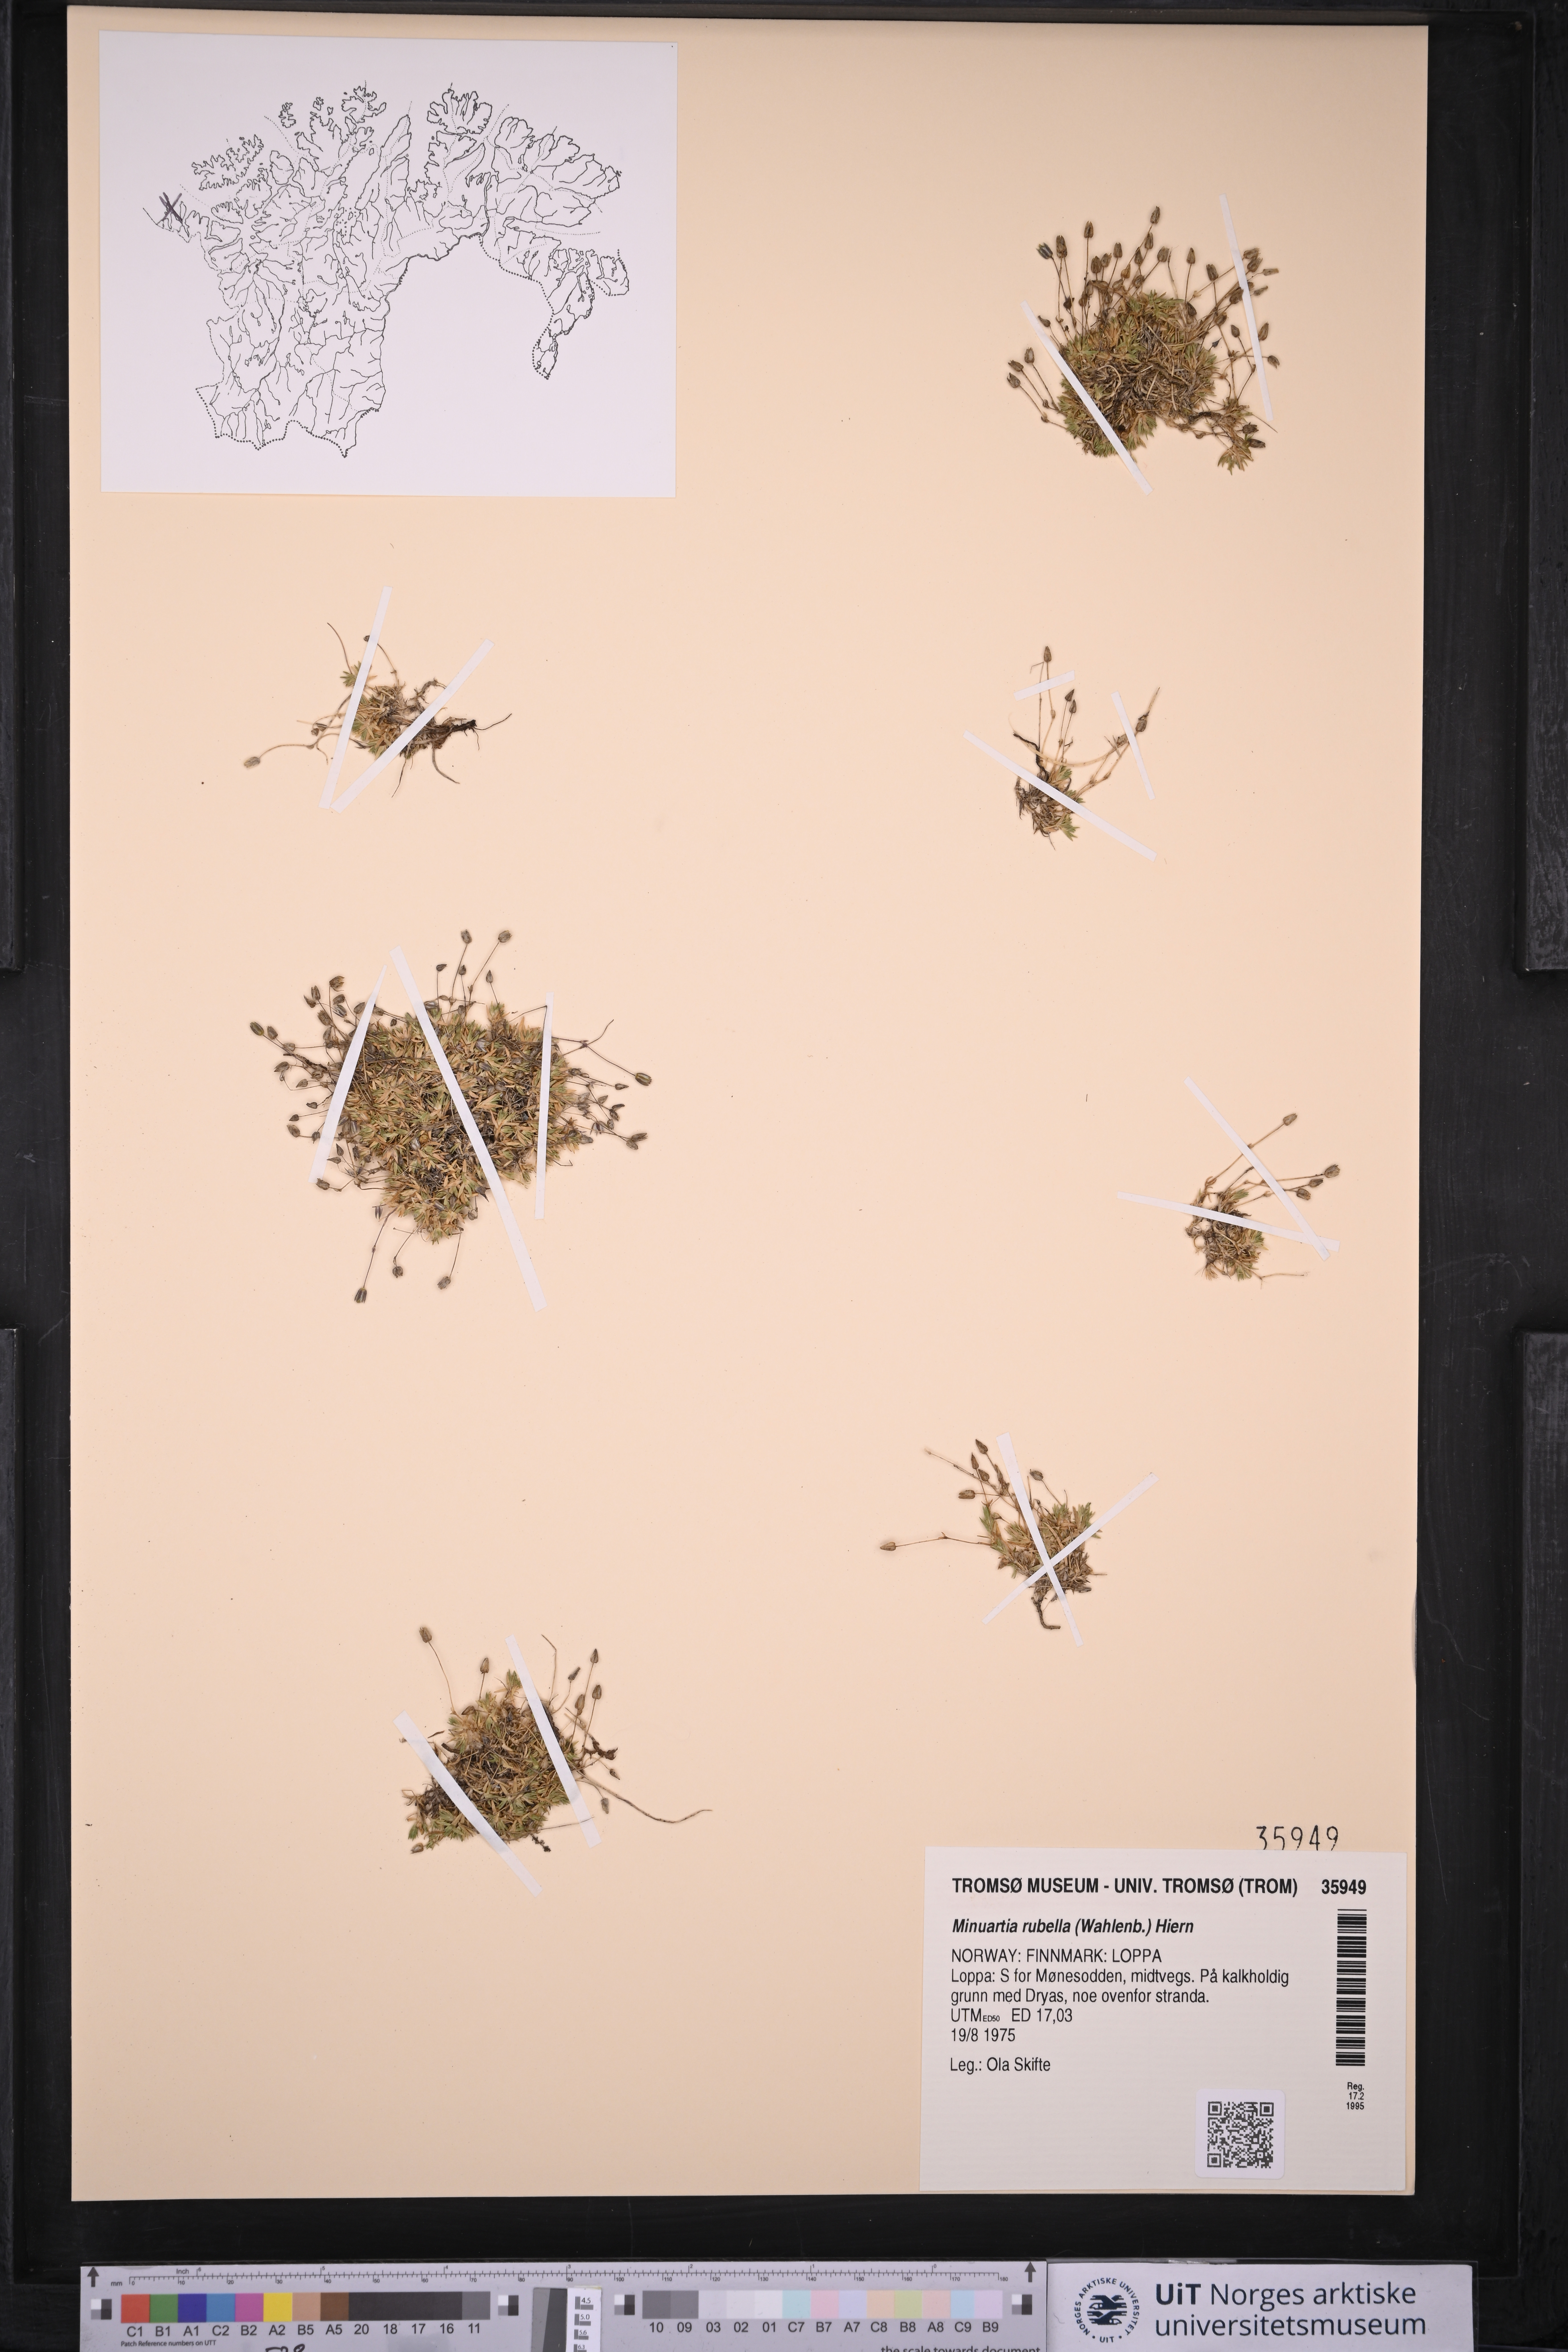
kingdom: Plantae
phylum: Tracheophyta
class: Magnoliopsida
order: Caryophyllales
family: Caryophyllaceae
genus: Sabulina
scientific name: Sabulina rubella
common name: Beautiful sandwort
